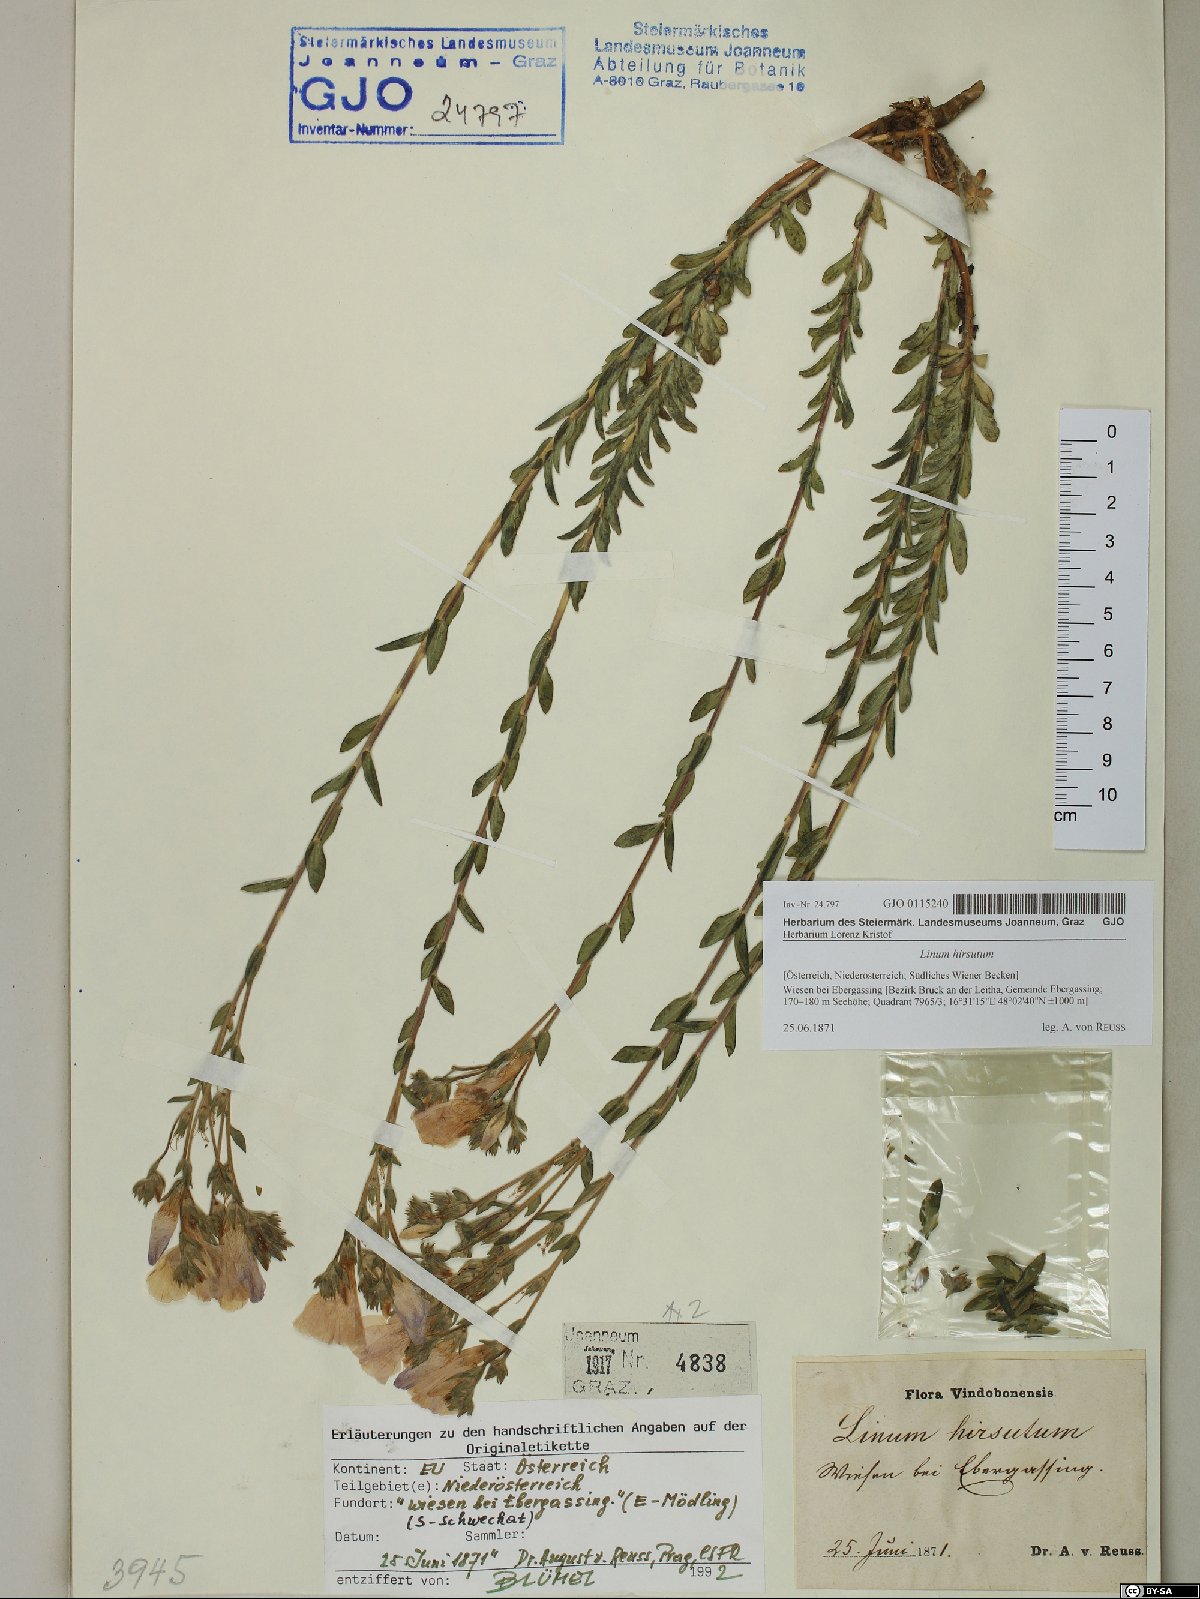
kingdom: Plantae
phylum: Tracheophyta
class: Magnoliopsida
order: Malpighiales
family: Linaceae
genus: Linum
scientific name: Linum hirsutum
